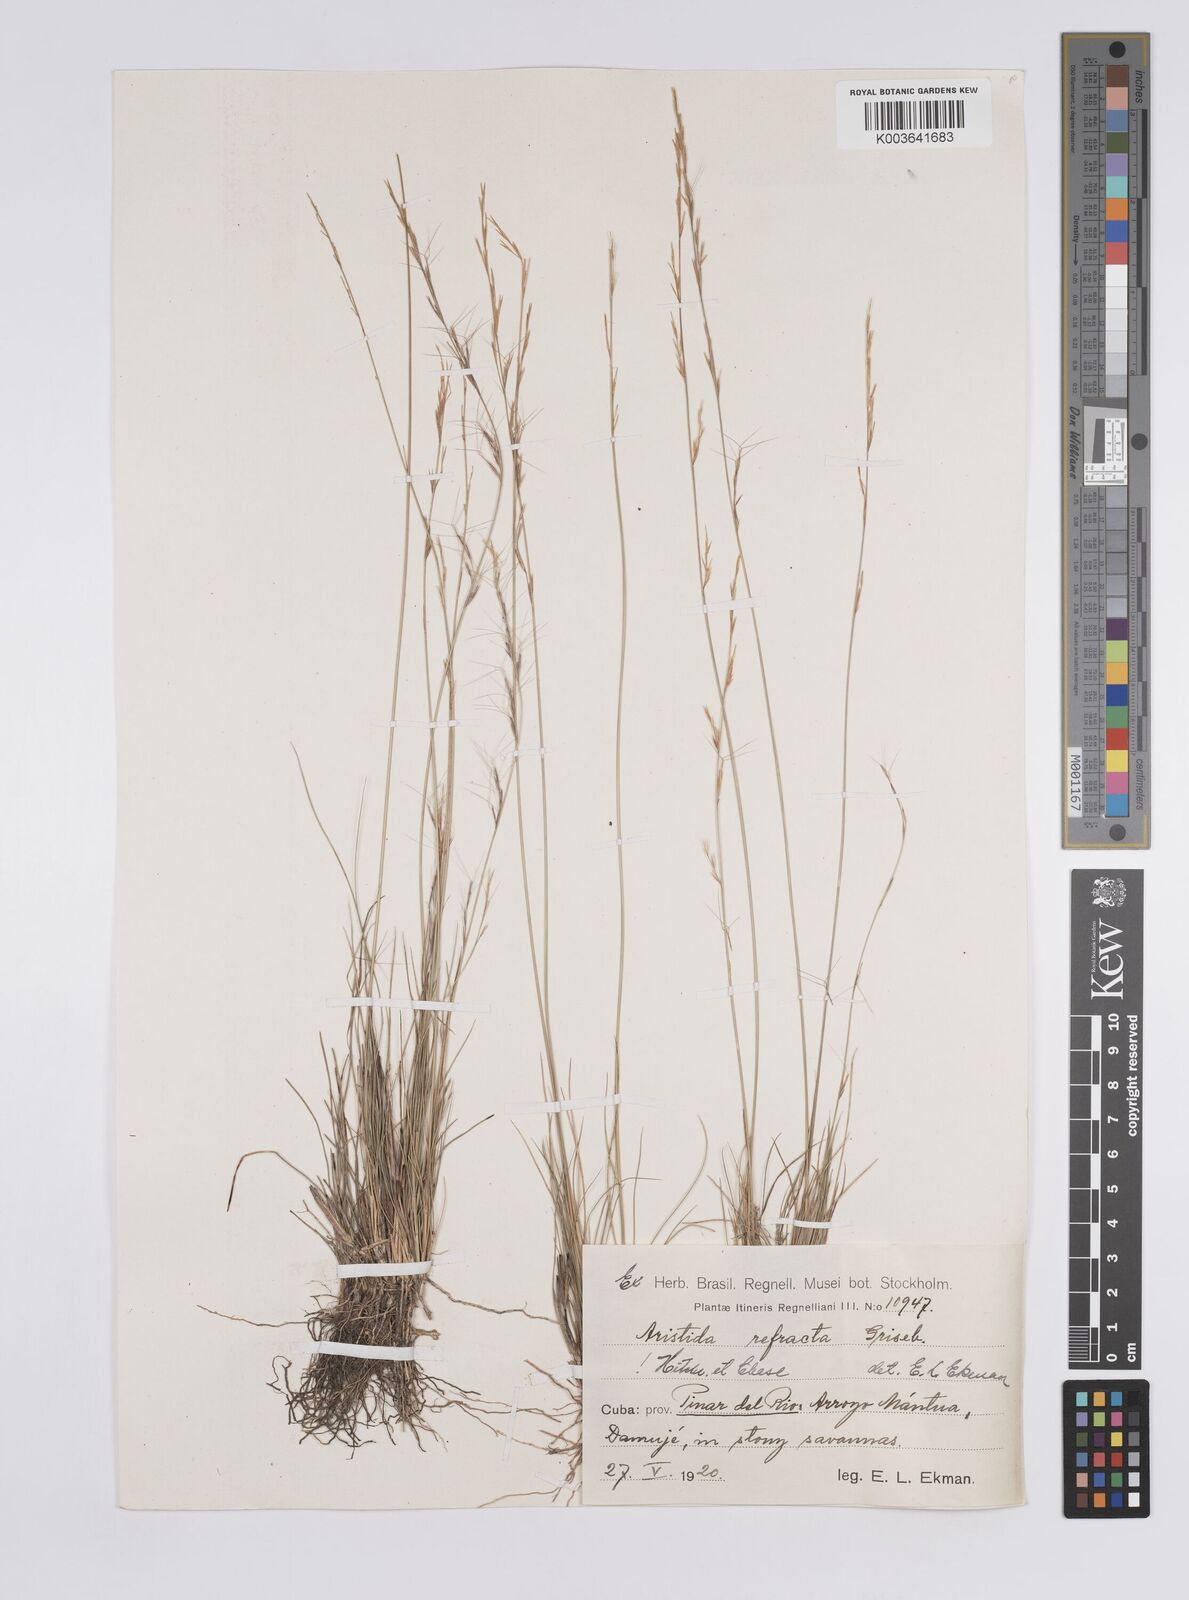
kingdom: Plantae
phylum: Tracheophyta
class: Liliopsida
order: Poales
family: Poaceae
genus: Aristida
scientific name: Aristida refracta
